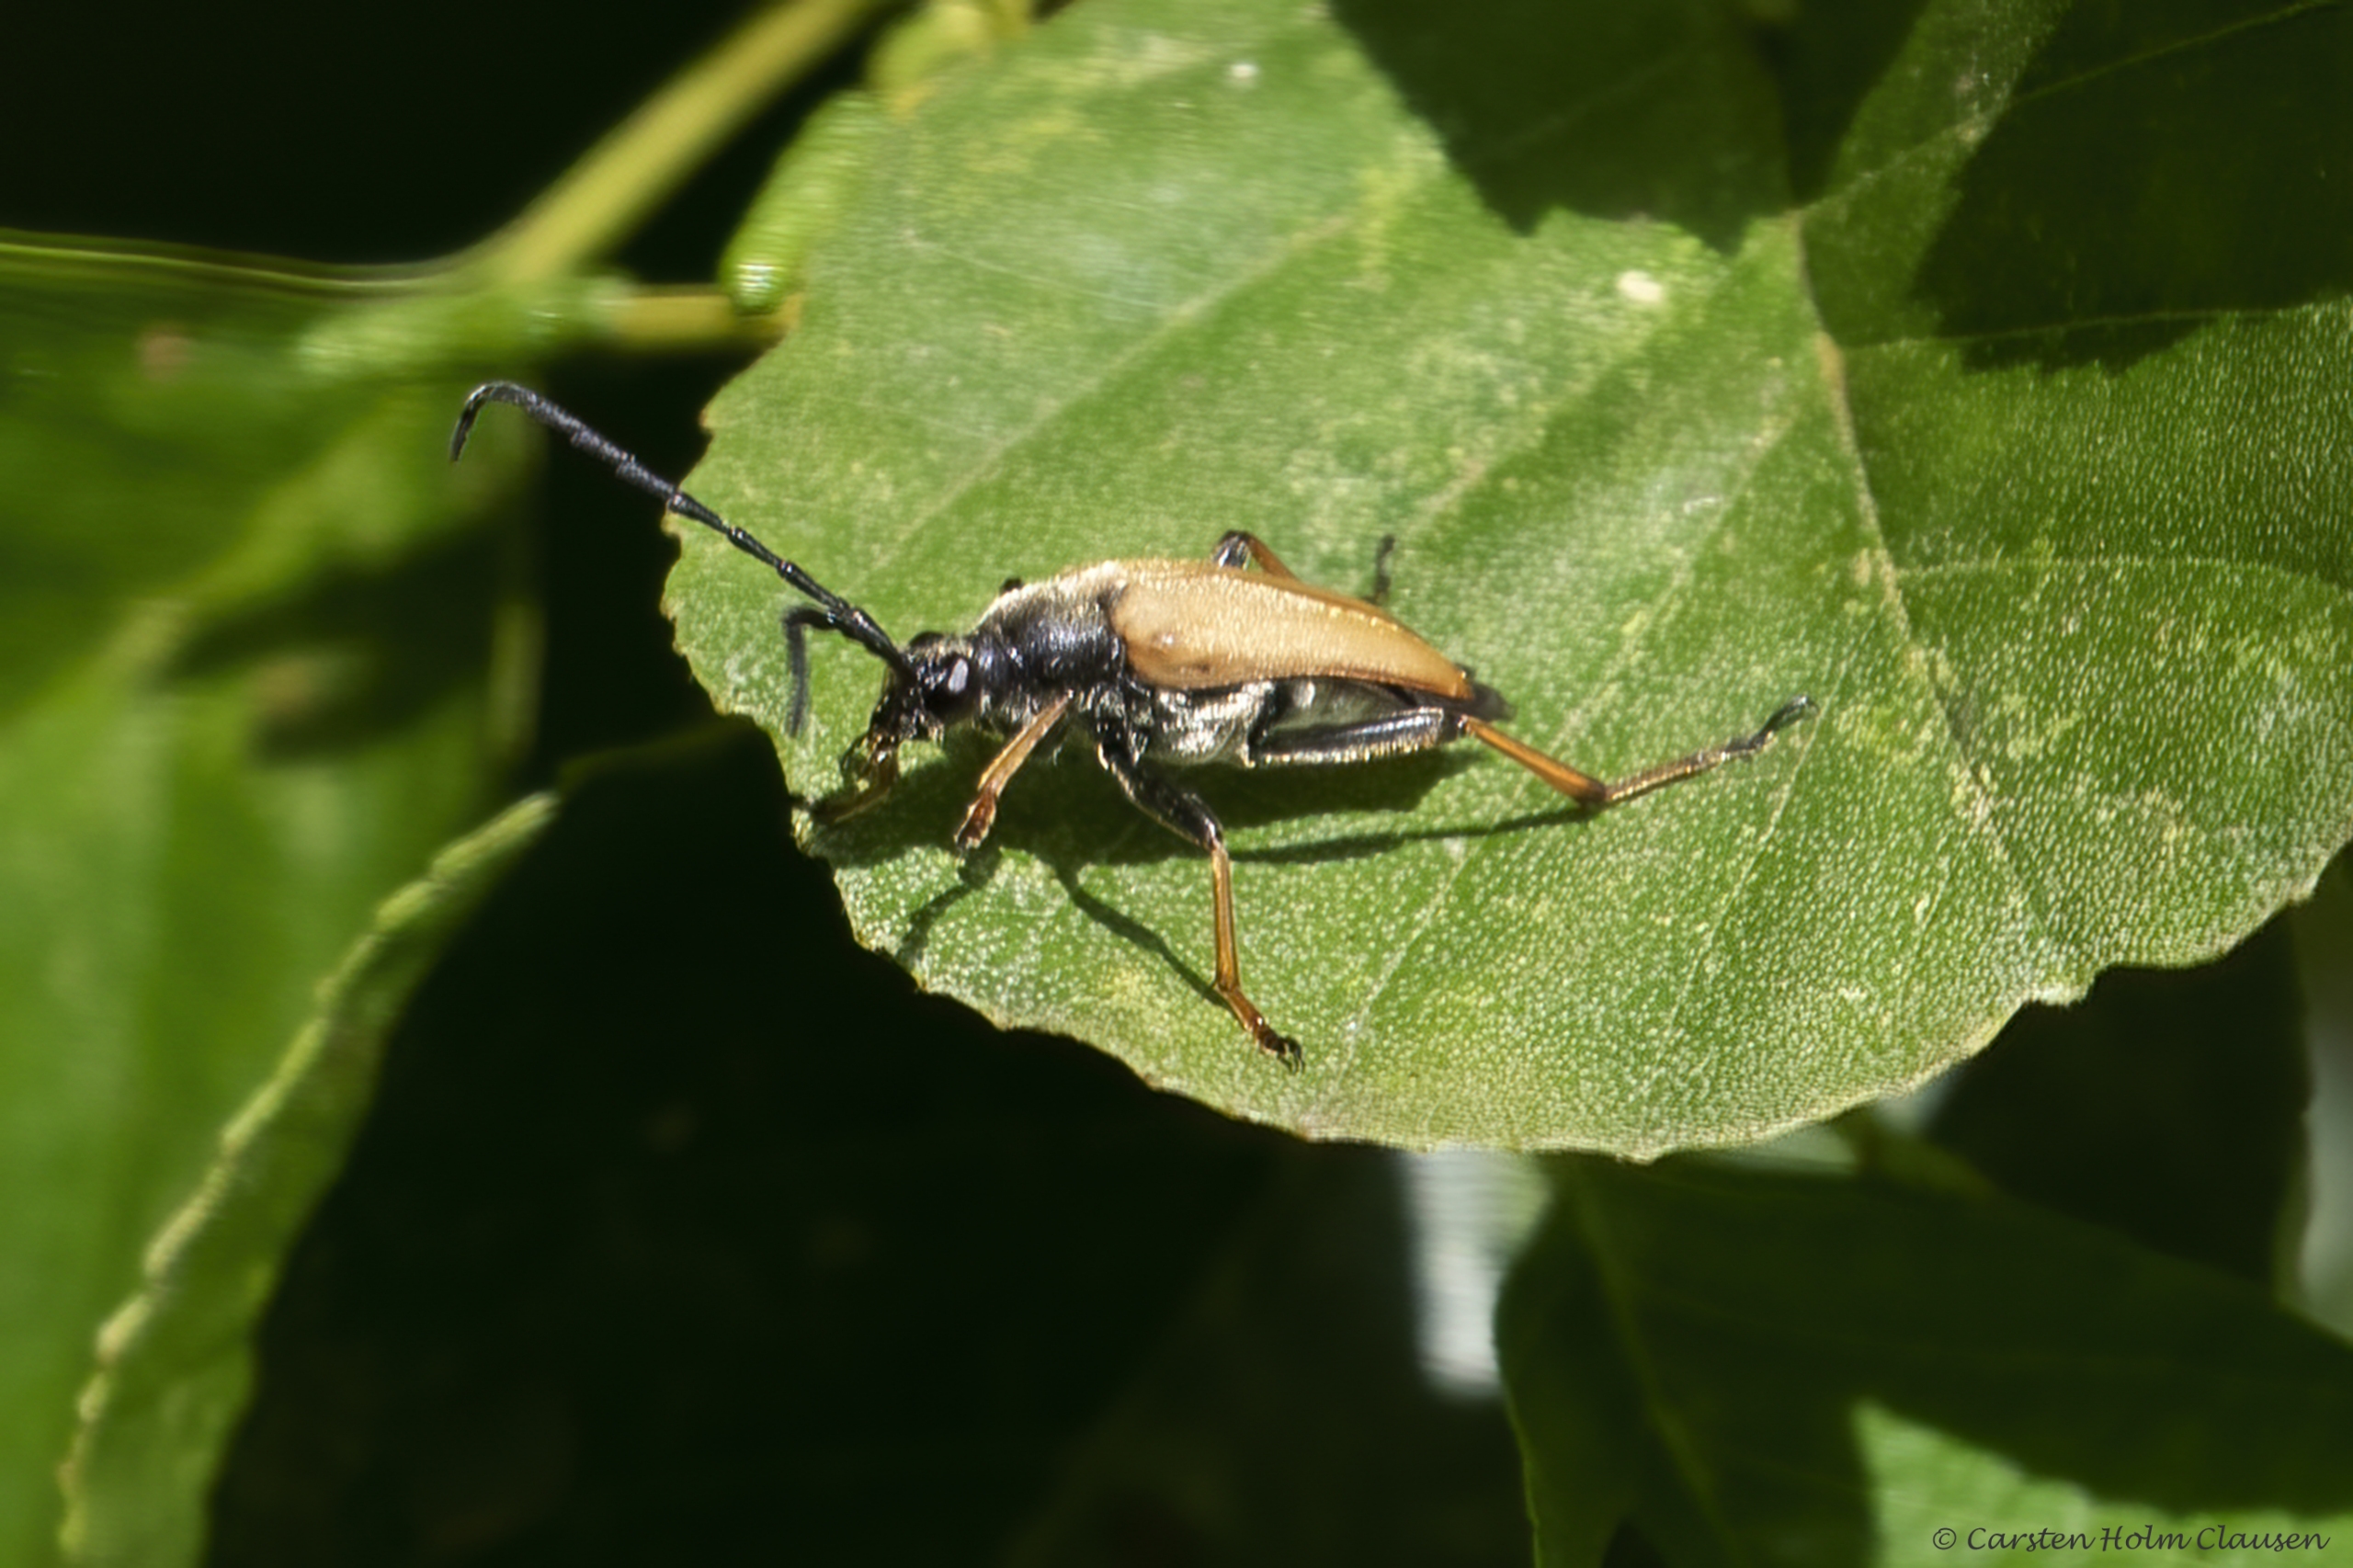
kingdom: Animalia
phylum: Arthropoda
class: Insecta
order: Coleoptera
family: Cerambycidae
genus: Stictoleptura
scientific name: Stictoleptura rubra
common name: Rød blomsterbuk
